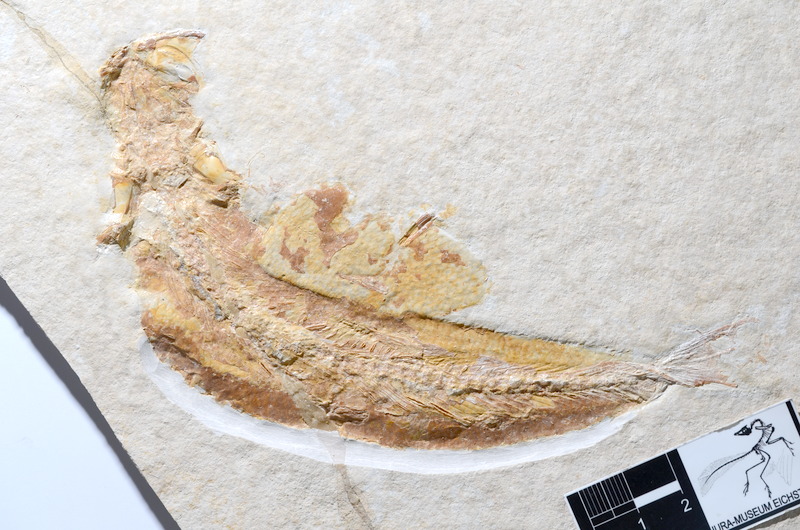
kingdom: Animalia
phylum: Chordata
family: Ascalaboidae
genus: Tharsis
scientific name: Tharsis dubius
